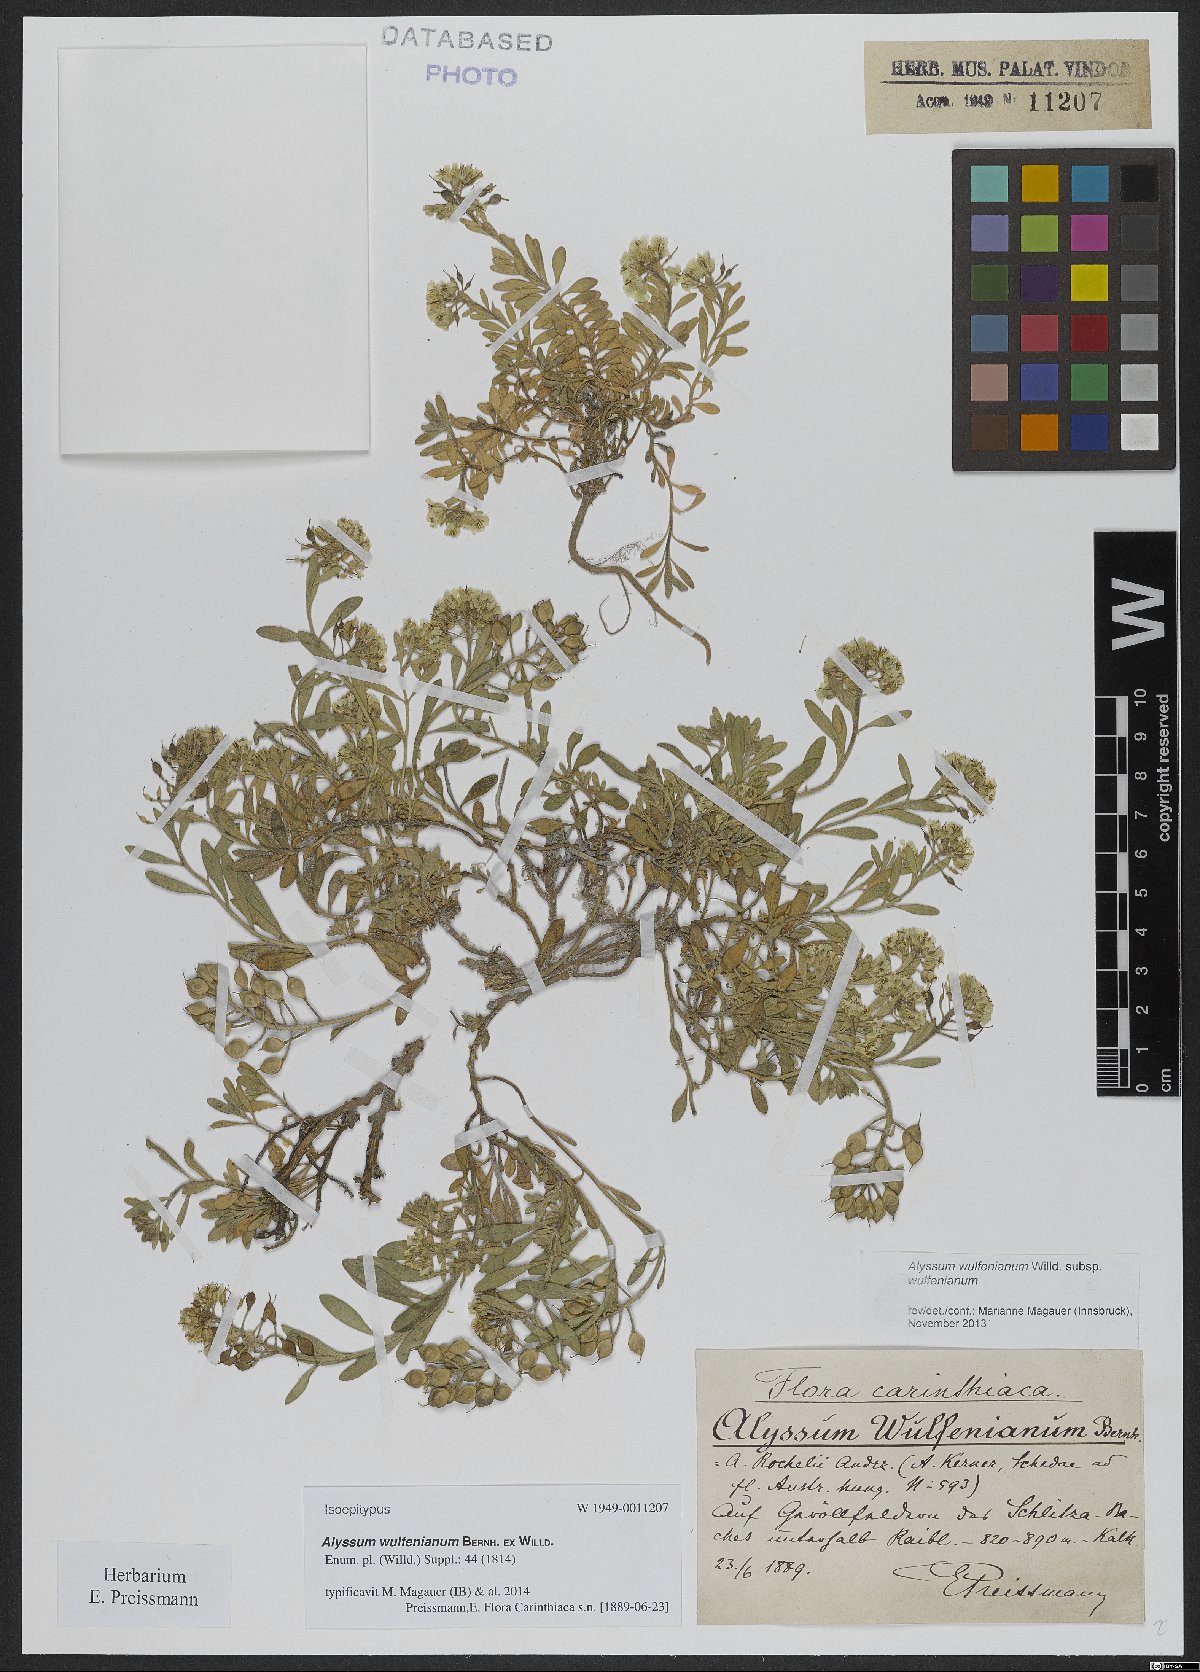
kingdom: Plantae
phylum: Tracheophyta
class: Magnoliopsida
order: Brassicales
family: Brassicaceae
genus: Alyssum
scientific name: Alyssum wulfenianum
